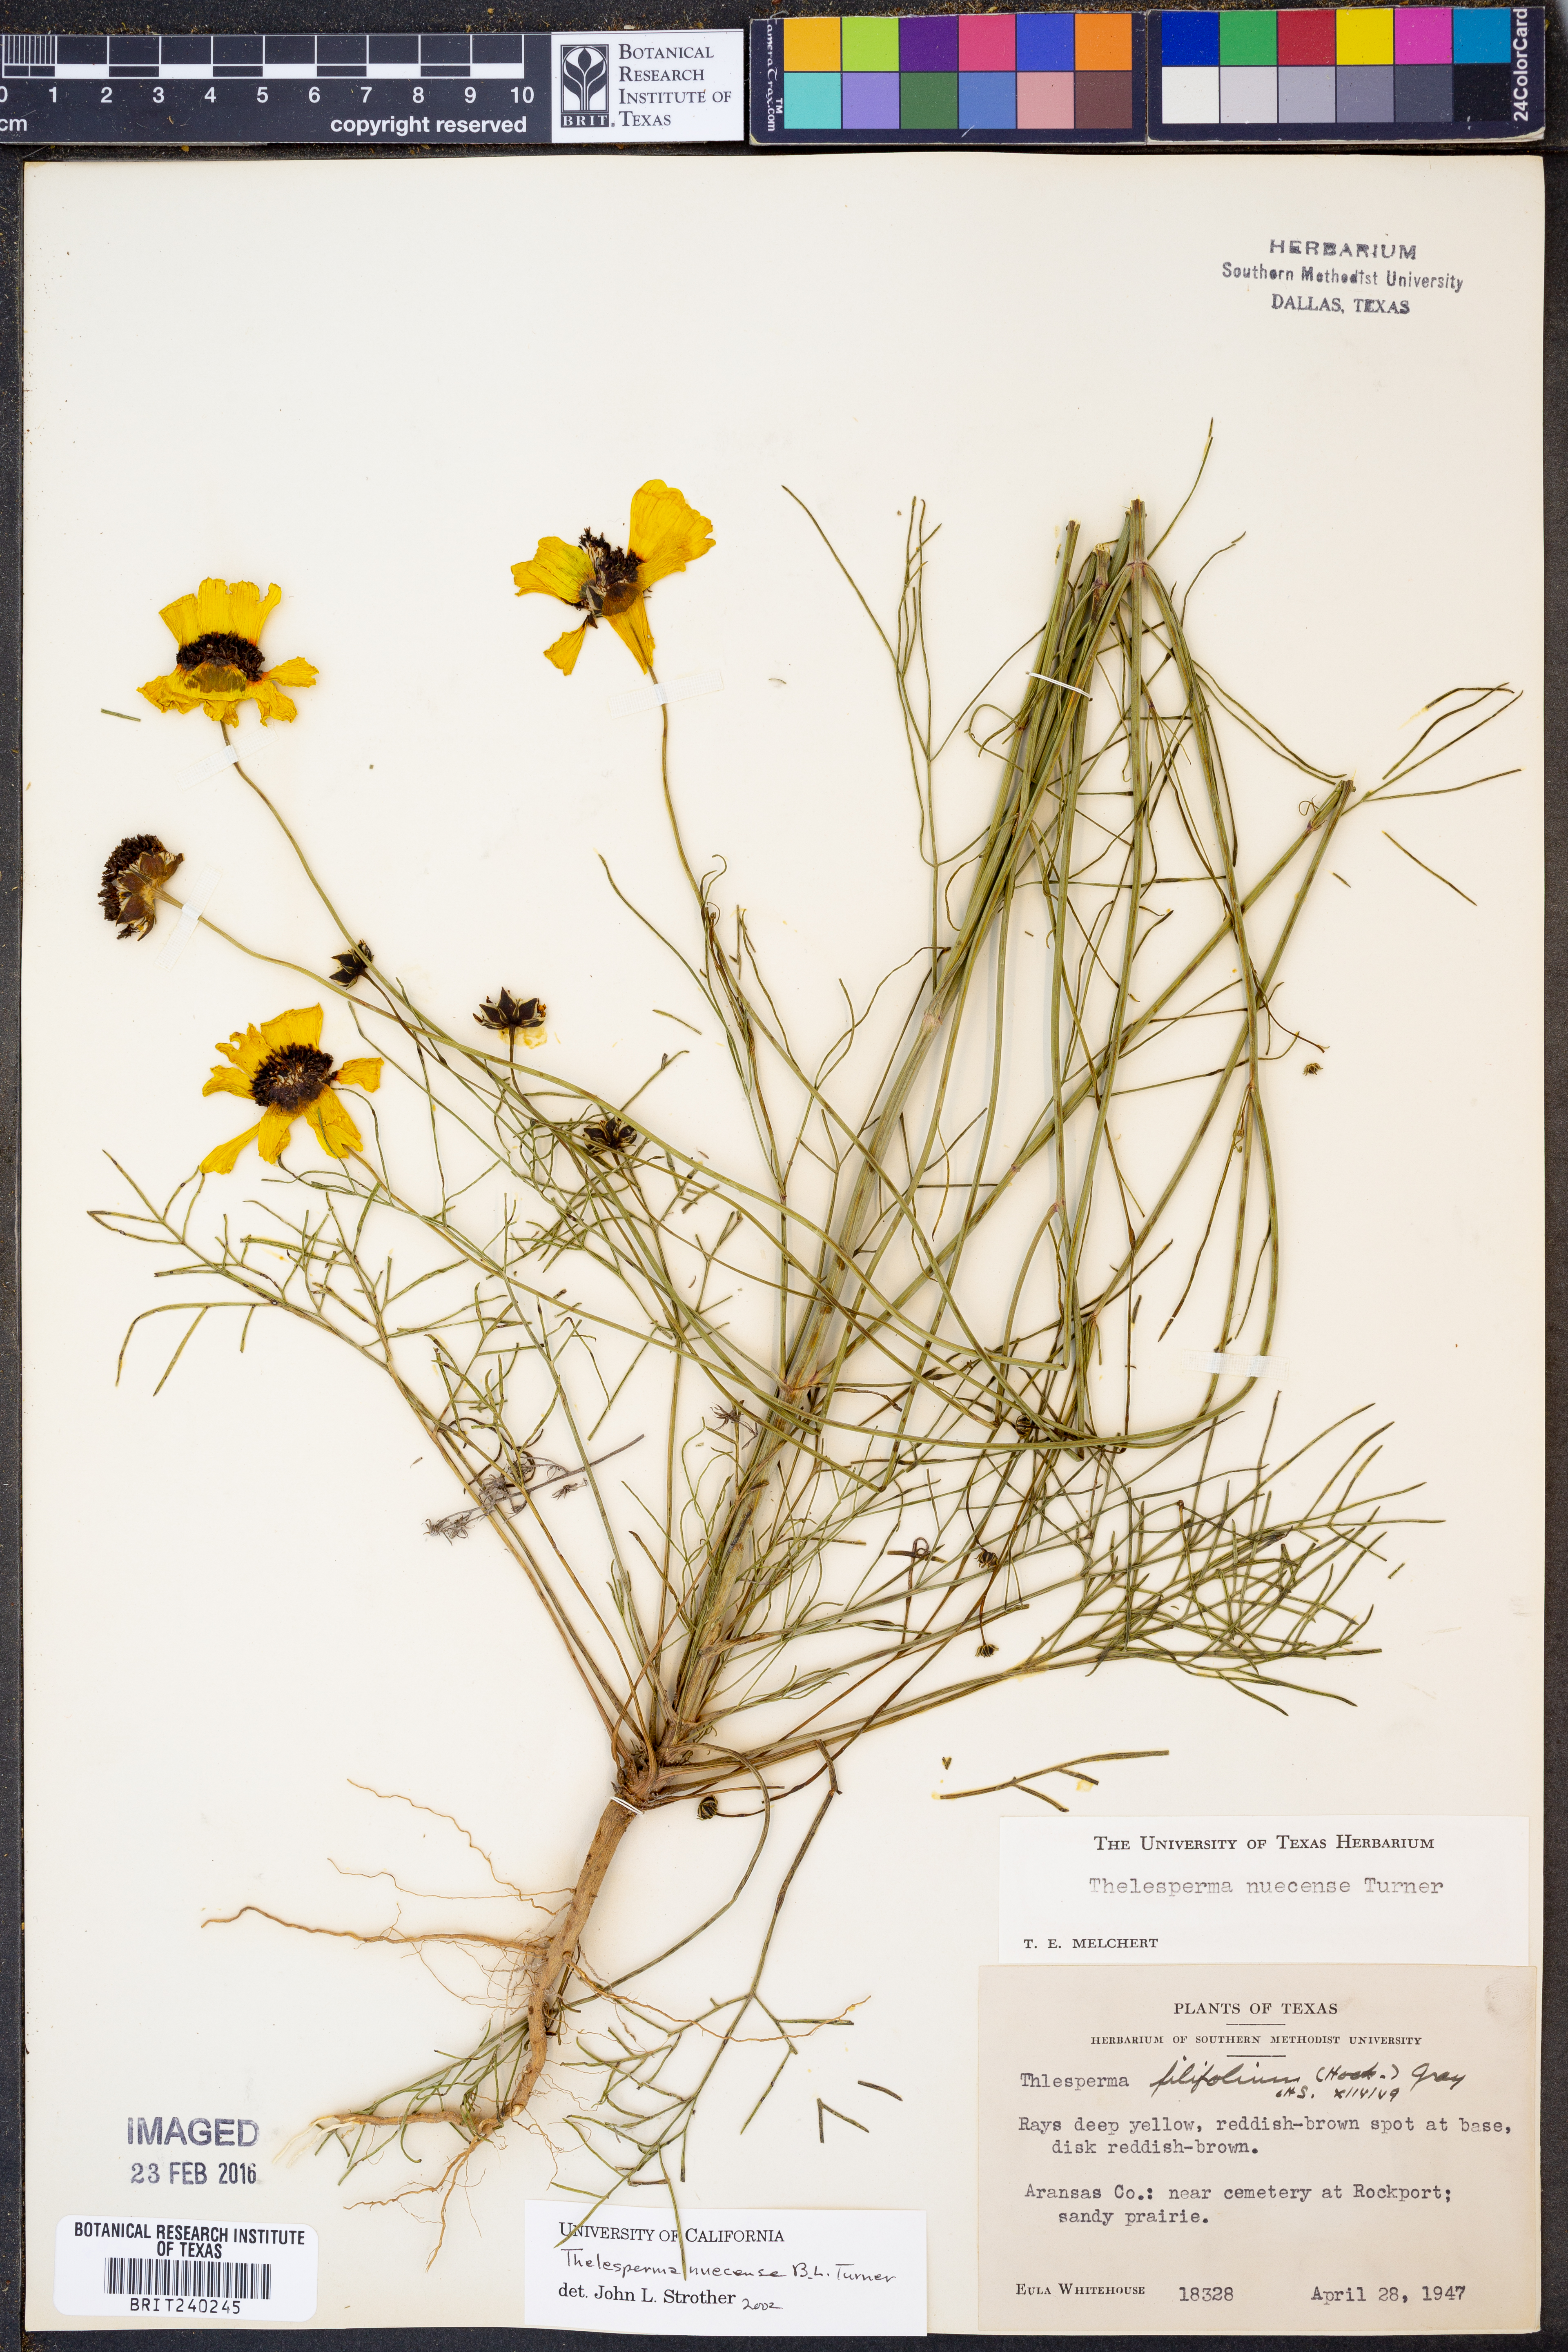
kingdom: Plantae
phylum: Tracheophyta
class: Magnoliopsida
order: Asterales
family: Asteraceae
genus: Thelesperma
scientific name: Thelesperma nuecense
